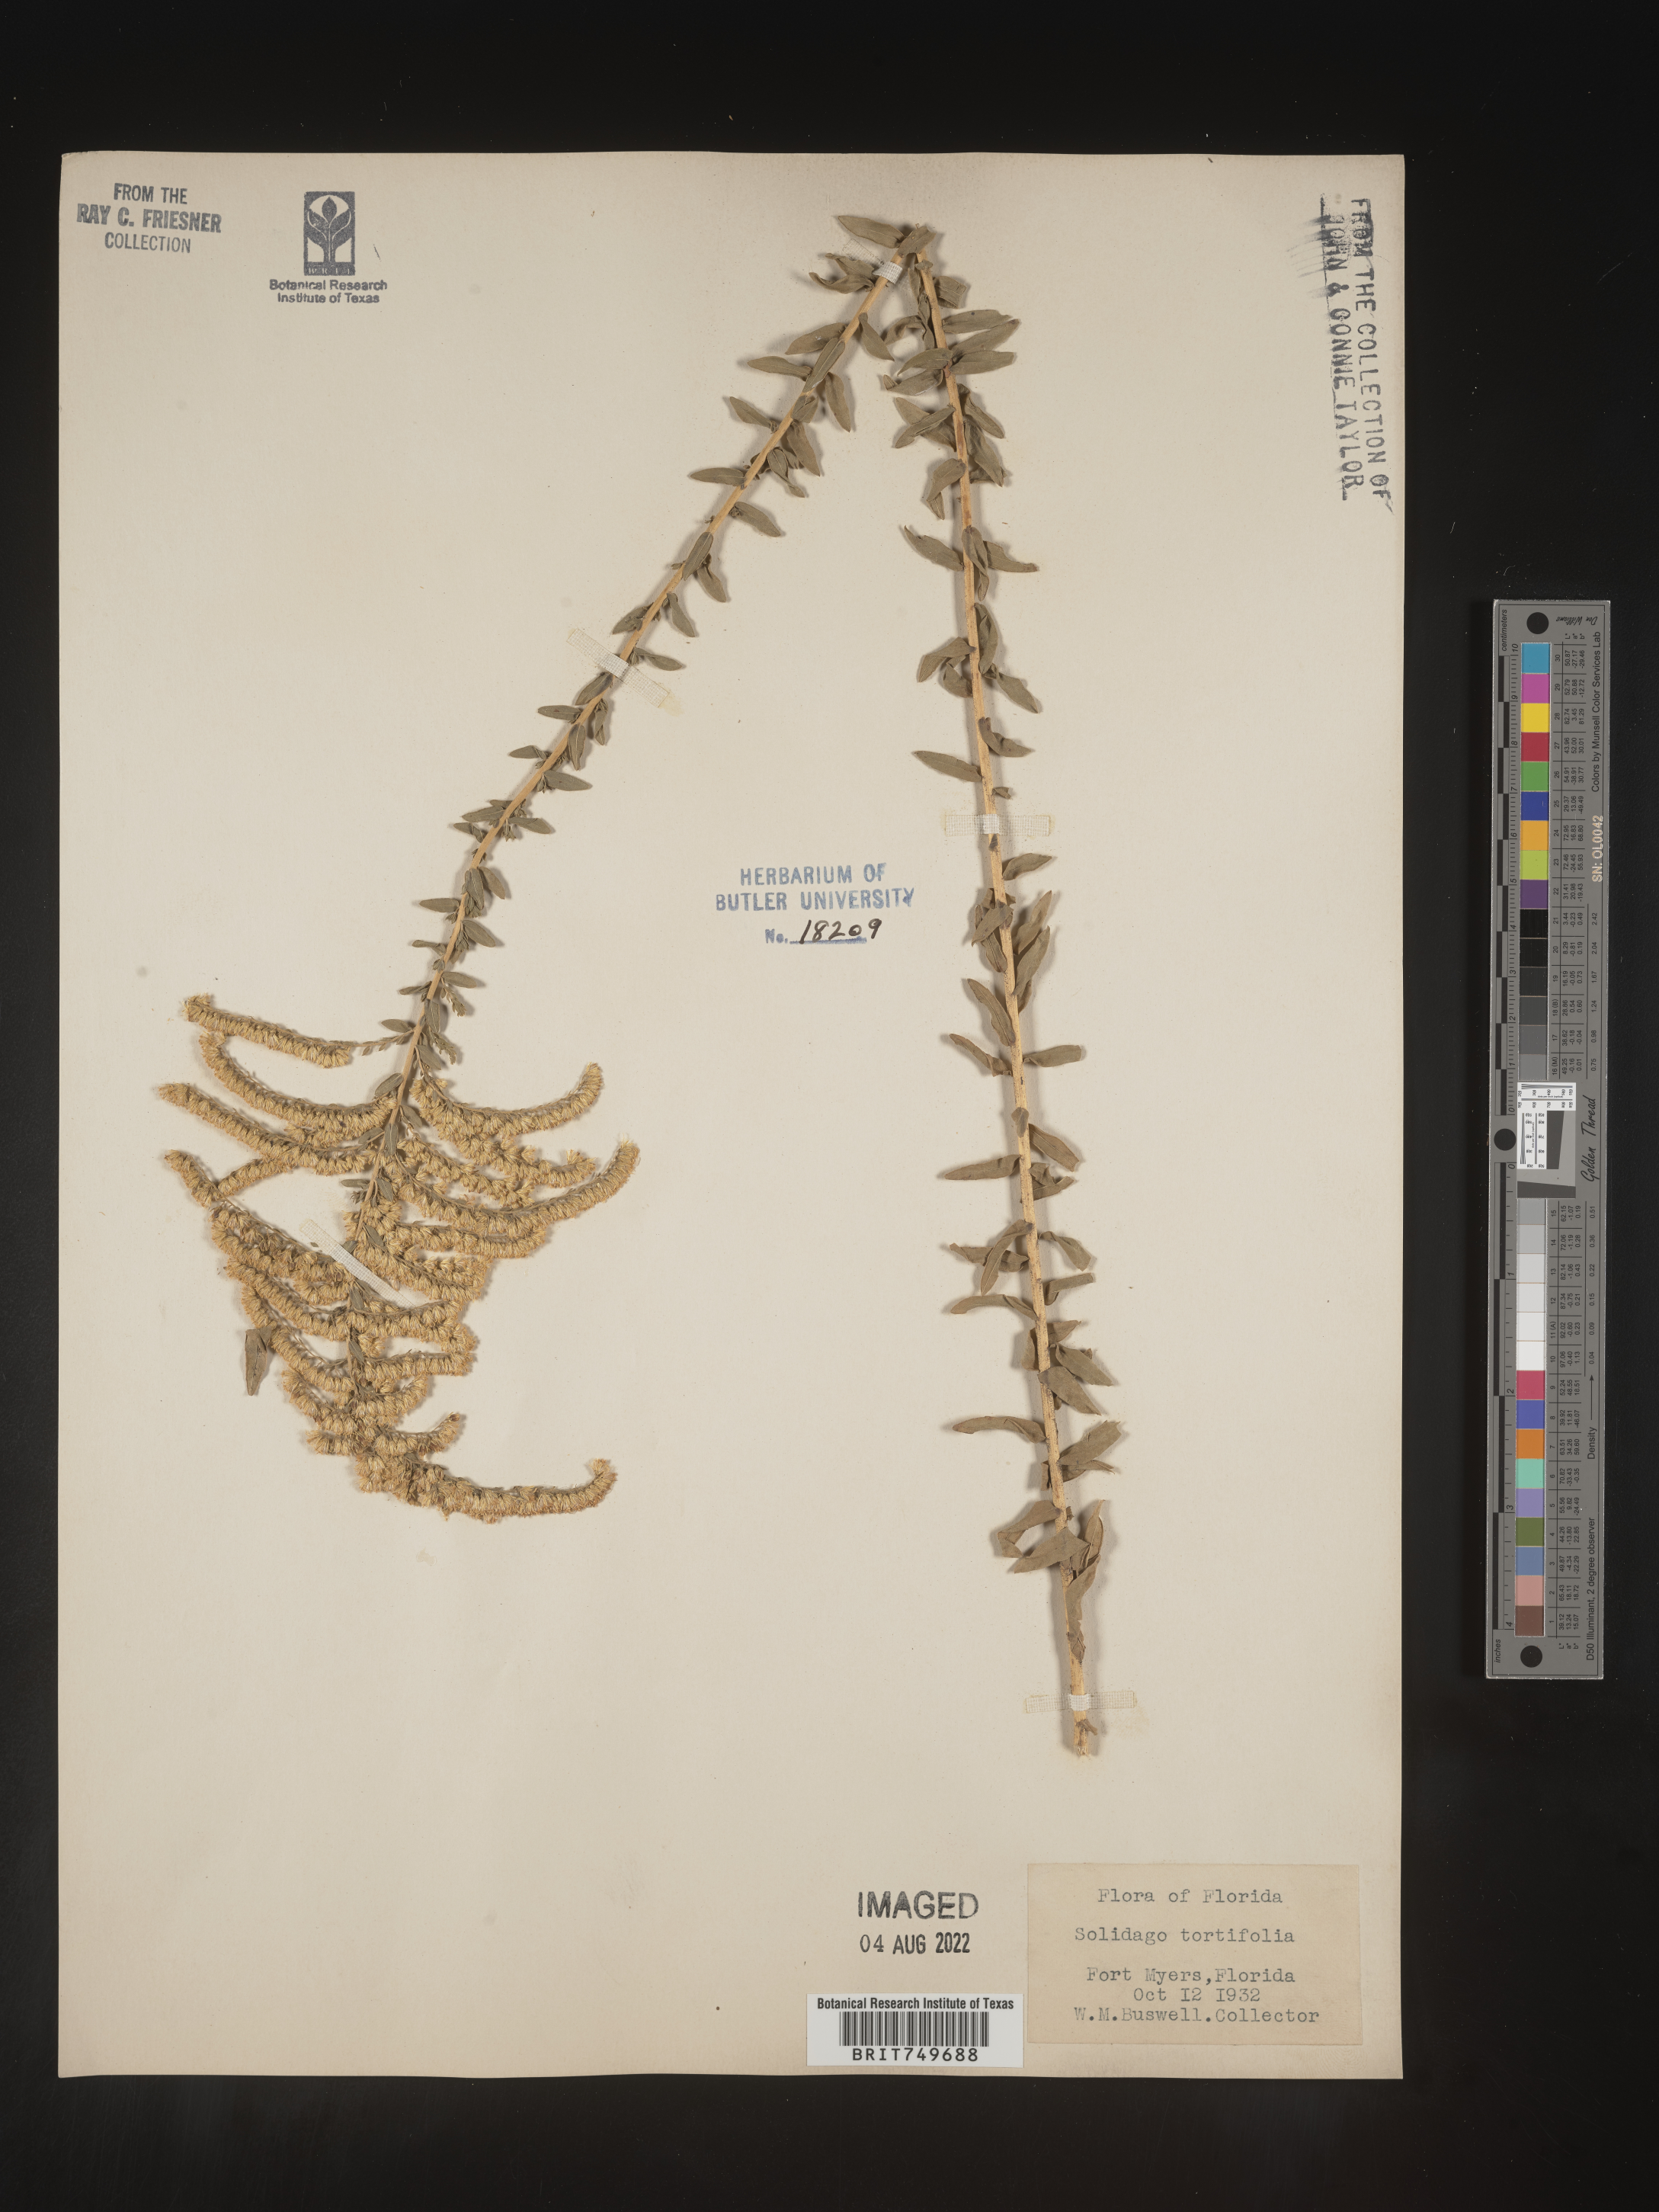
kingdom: Plantae
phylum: Tracheophyta
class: Magnoliopsida
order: Asterales
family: Asteraceae
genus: Solidago
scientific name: Solidago tortifolia
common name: Twisted-leaf goldenrod
